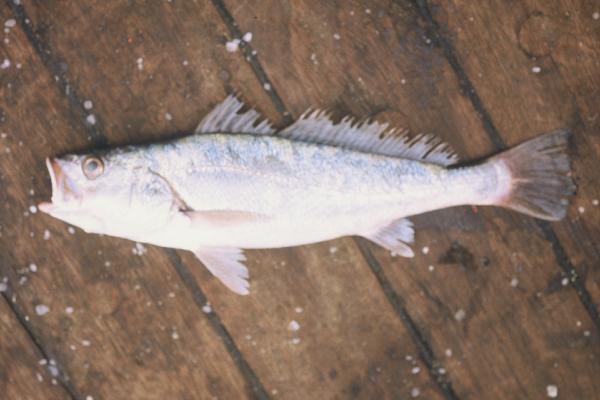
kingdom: Animalia
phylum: Chordata
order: Perciformes
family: Sciaenidae
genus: Argyrosomus
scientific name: Argyrosomus
